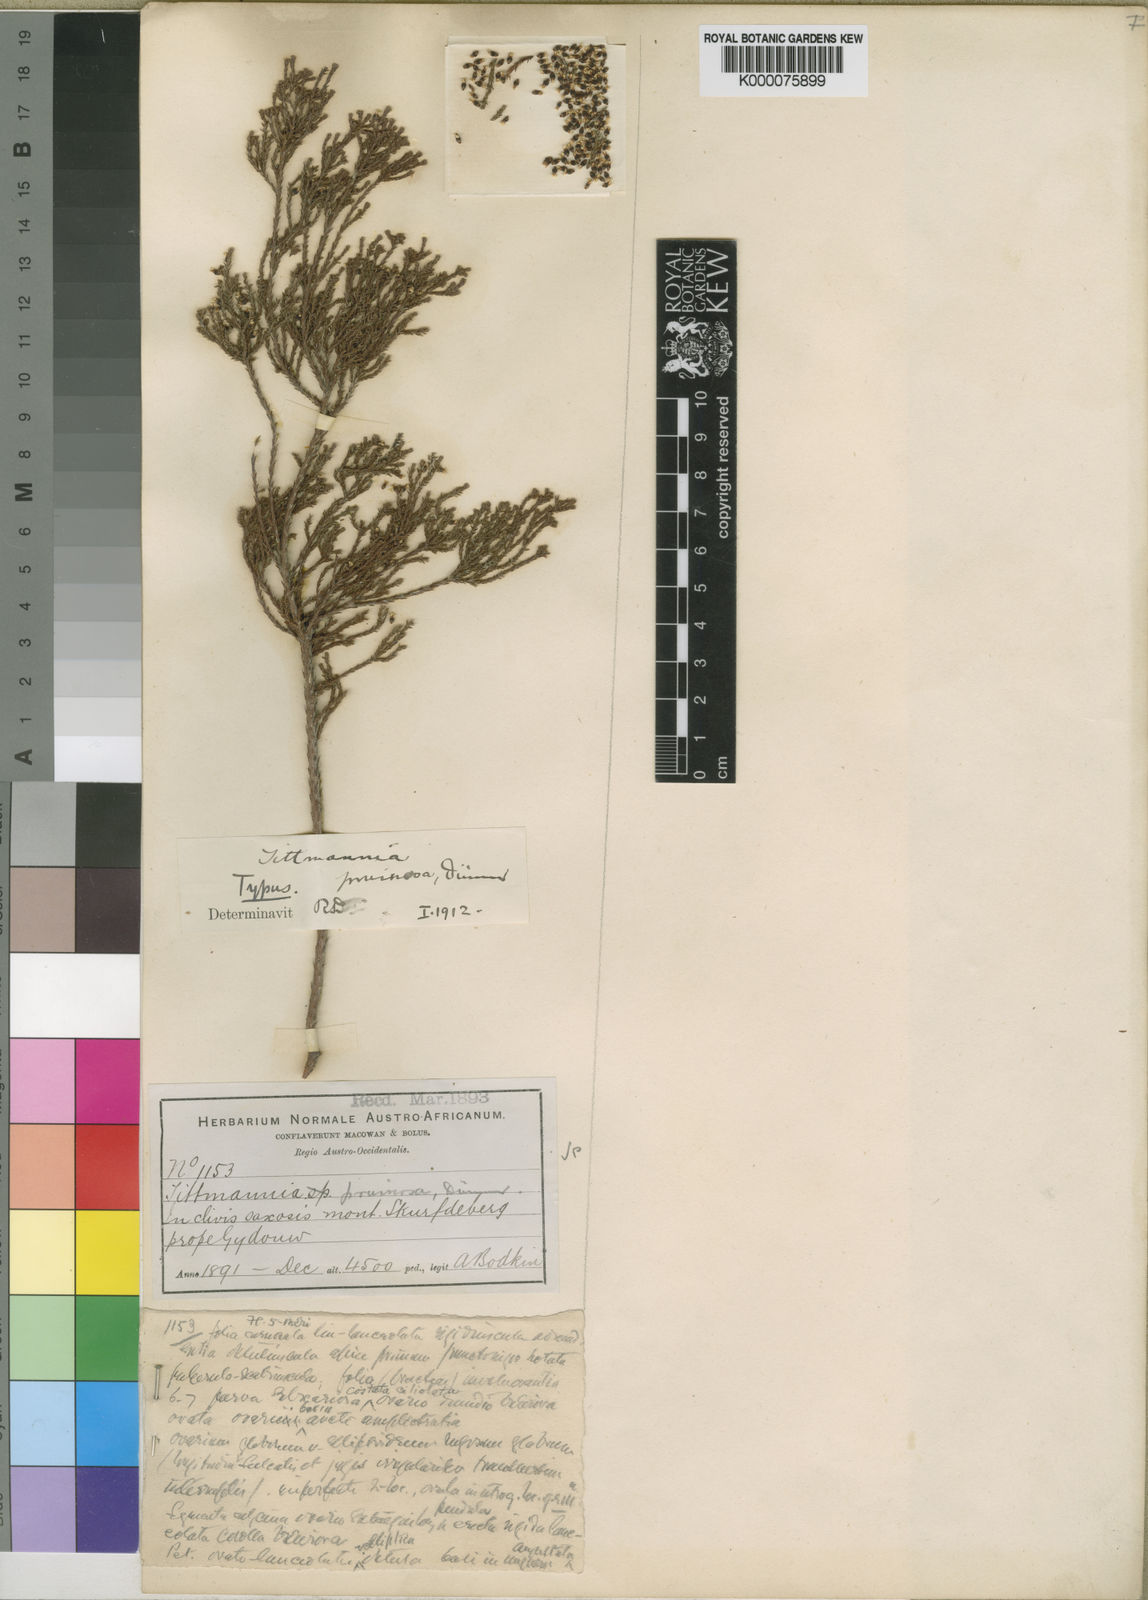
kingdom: Plantae
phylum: Tracheophyta
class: Magnoliopsida
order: Bruniales
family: Bruniaceae
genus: Audouinia
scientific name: Audouinia laxa
